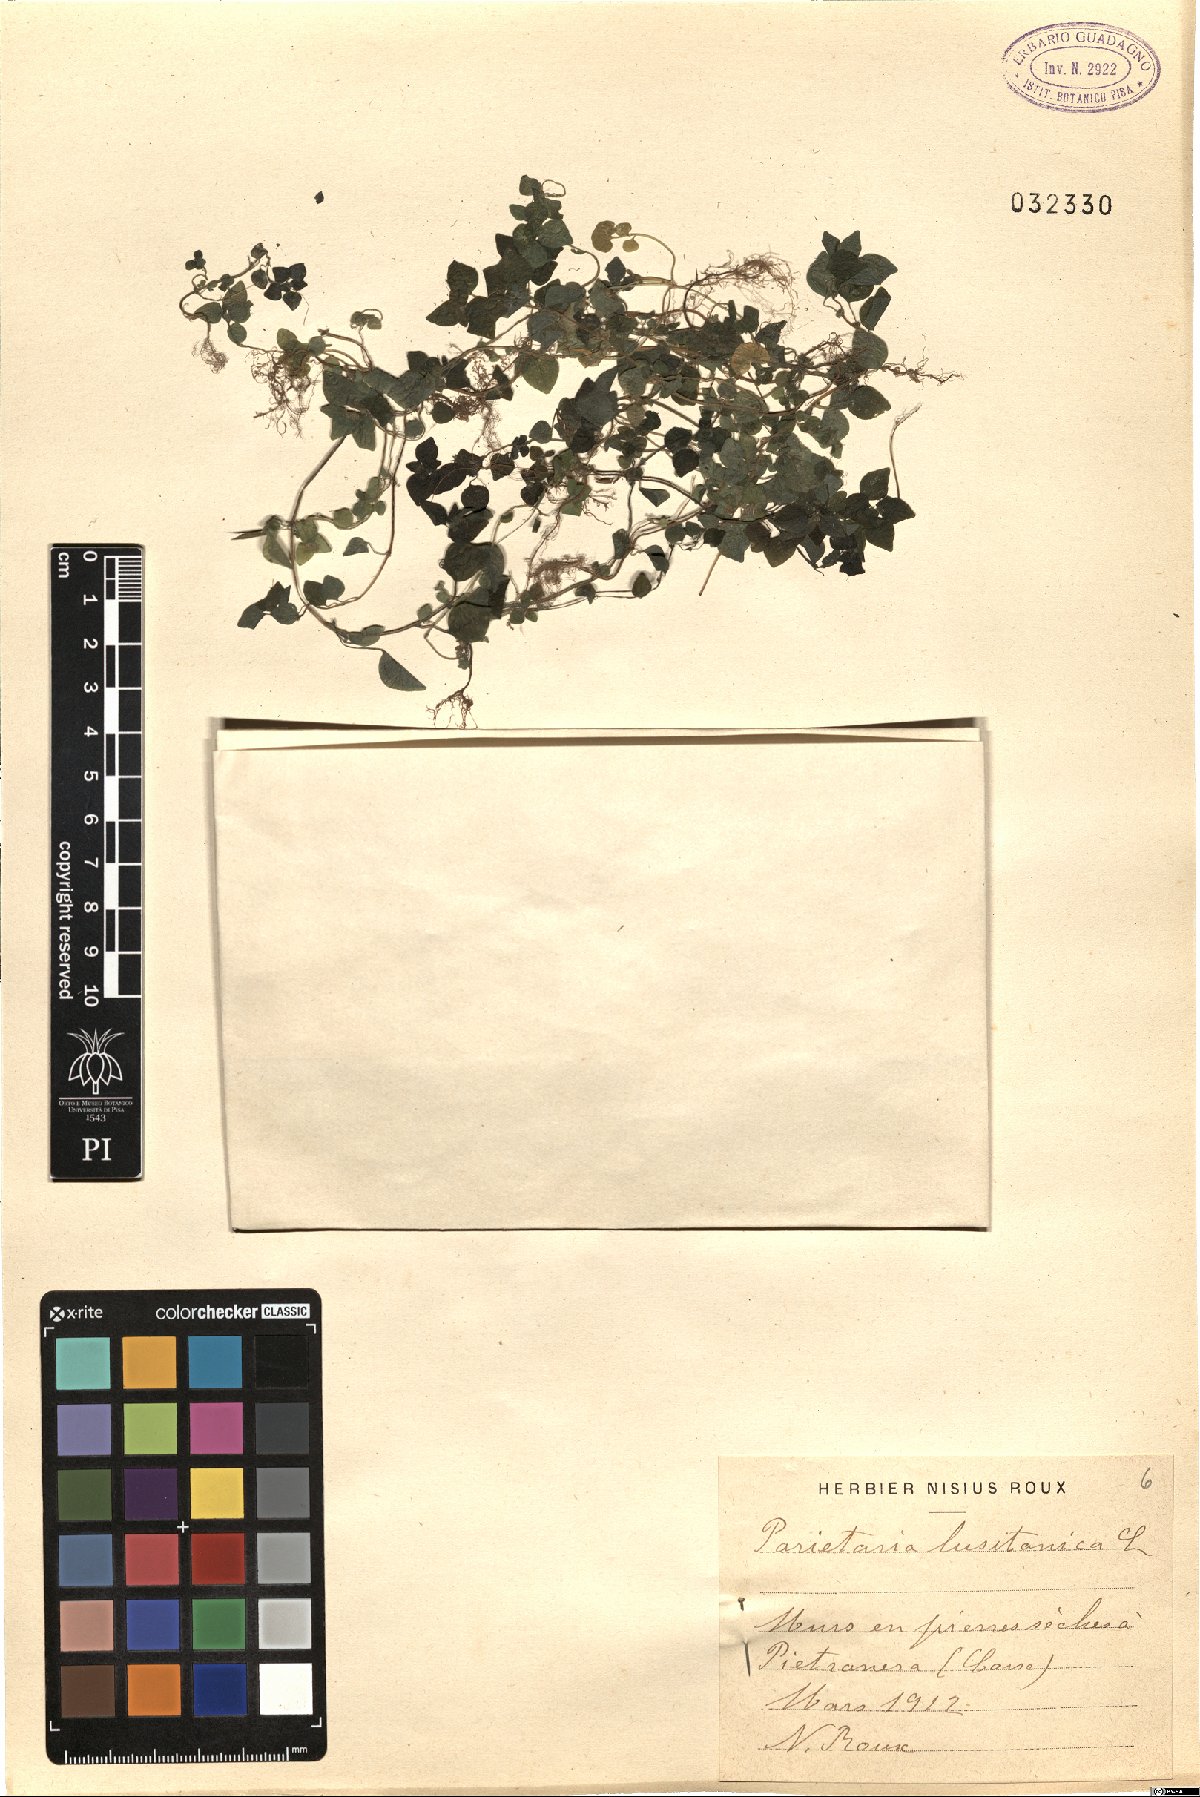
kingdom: Plantae
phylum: Tracheophyta
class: Magnoliopsida
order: Rosales
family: Urticaceae
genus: Parietaria
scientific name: Parietaria lusitanica
